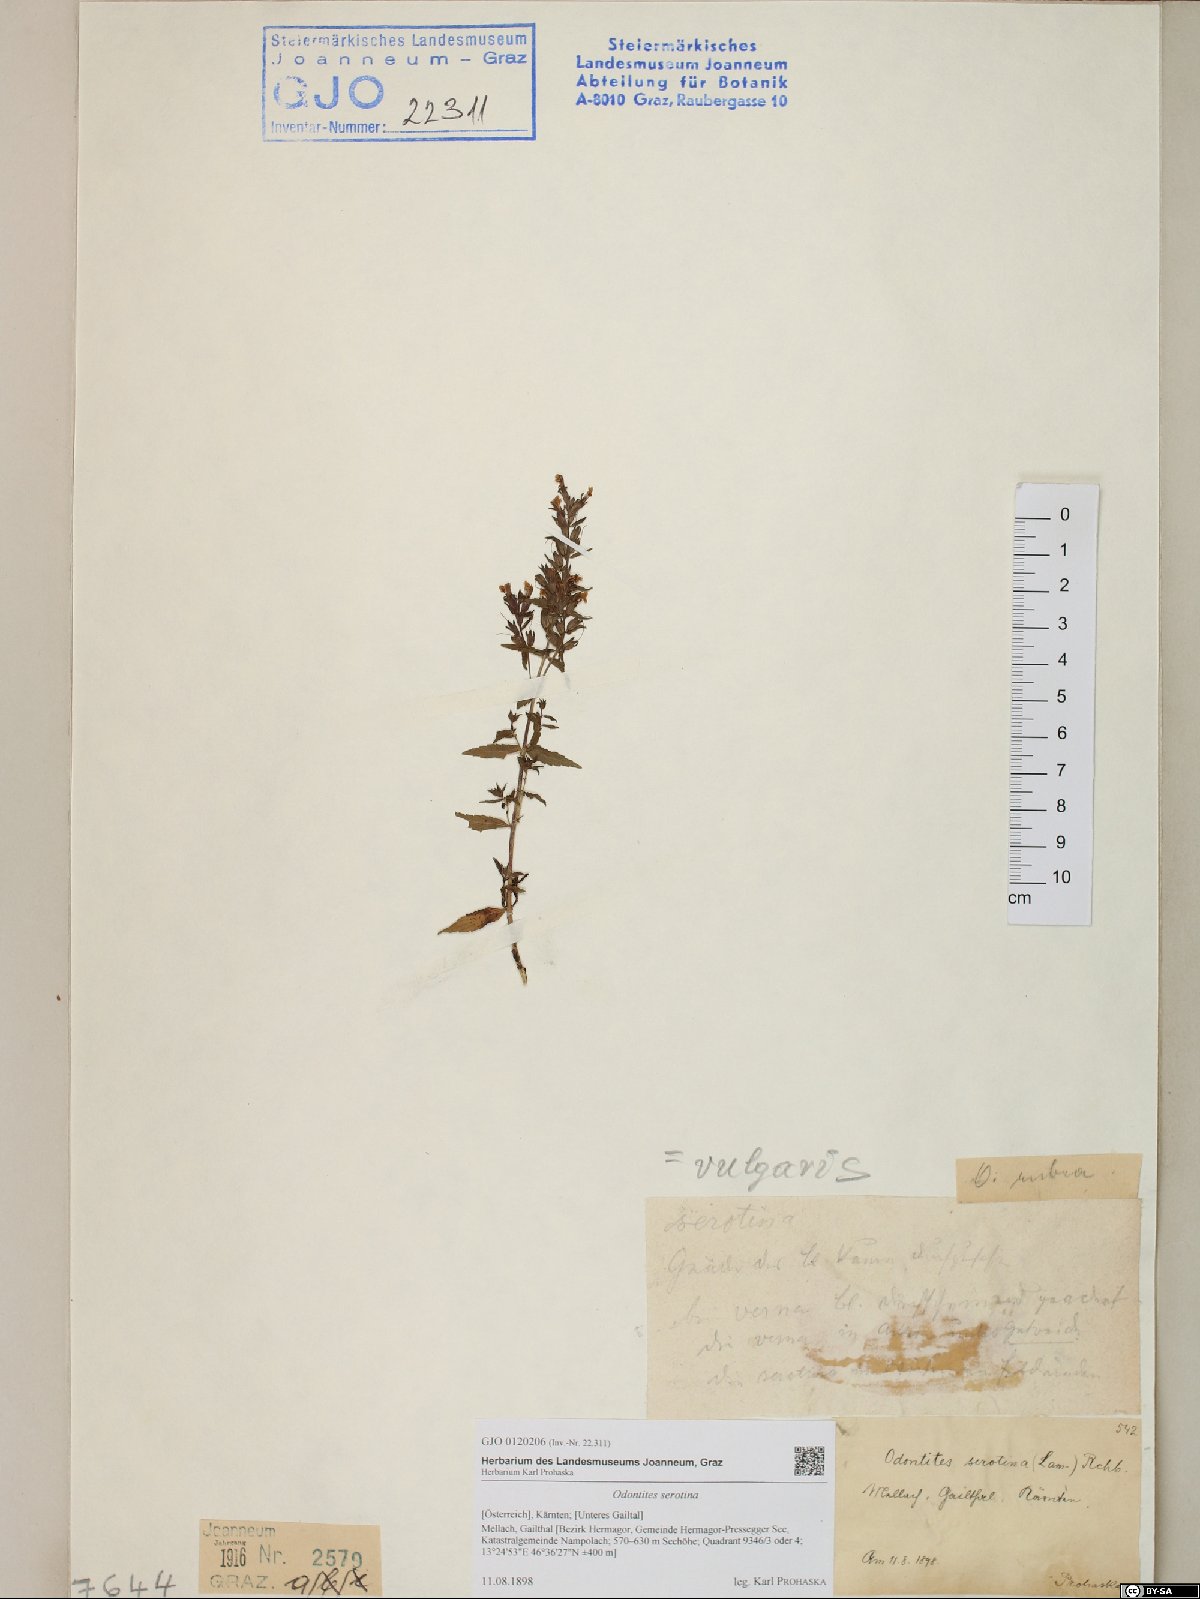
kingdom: Plantae
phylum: Tracheophyta
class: Magnoliopsida
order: Lamiales
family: Orobanchaceae
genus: Odontites
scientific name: Odontites vulgaris
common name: Broomrape
